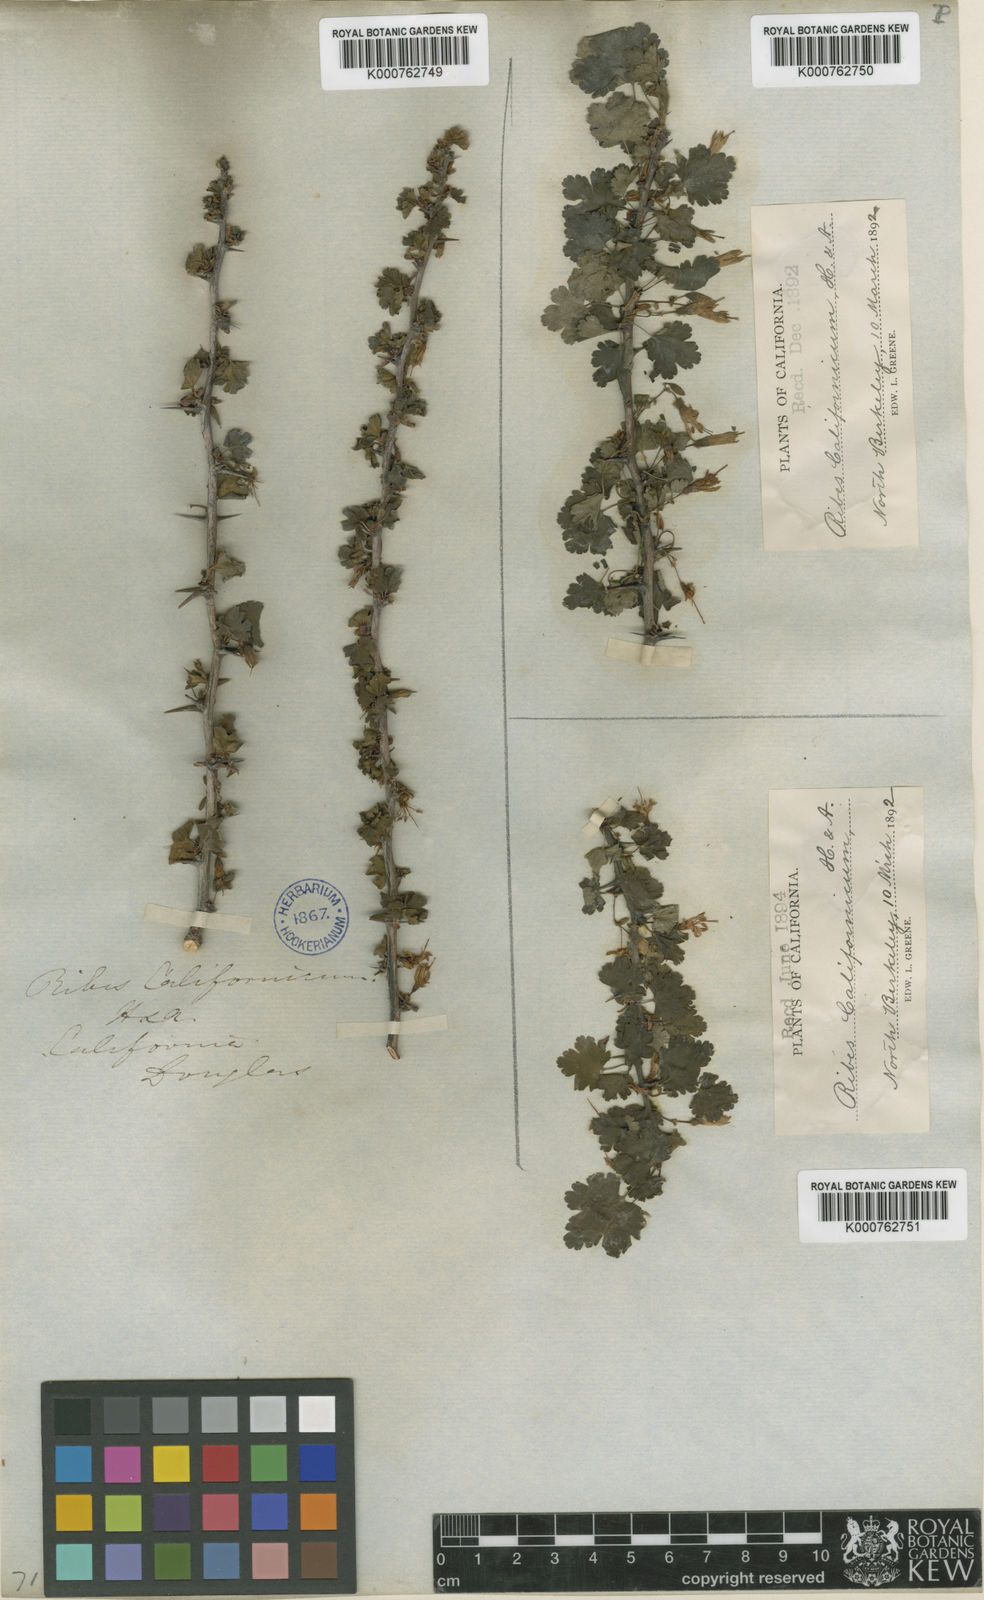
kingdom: Plantae
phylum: Tracheophyta
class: Magnoliopsida
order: Saxifragales
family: Grossulariaceae
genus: Ribes
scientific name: Ribes californicum
